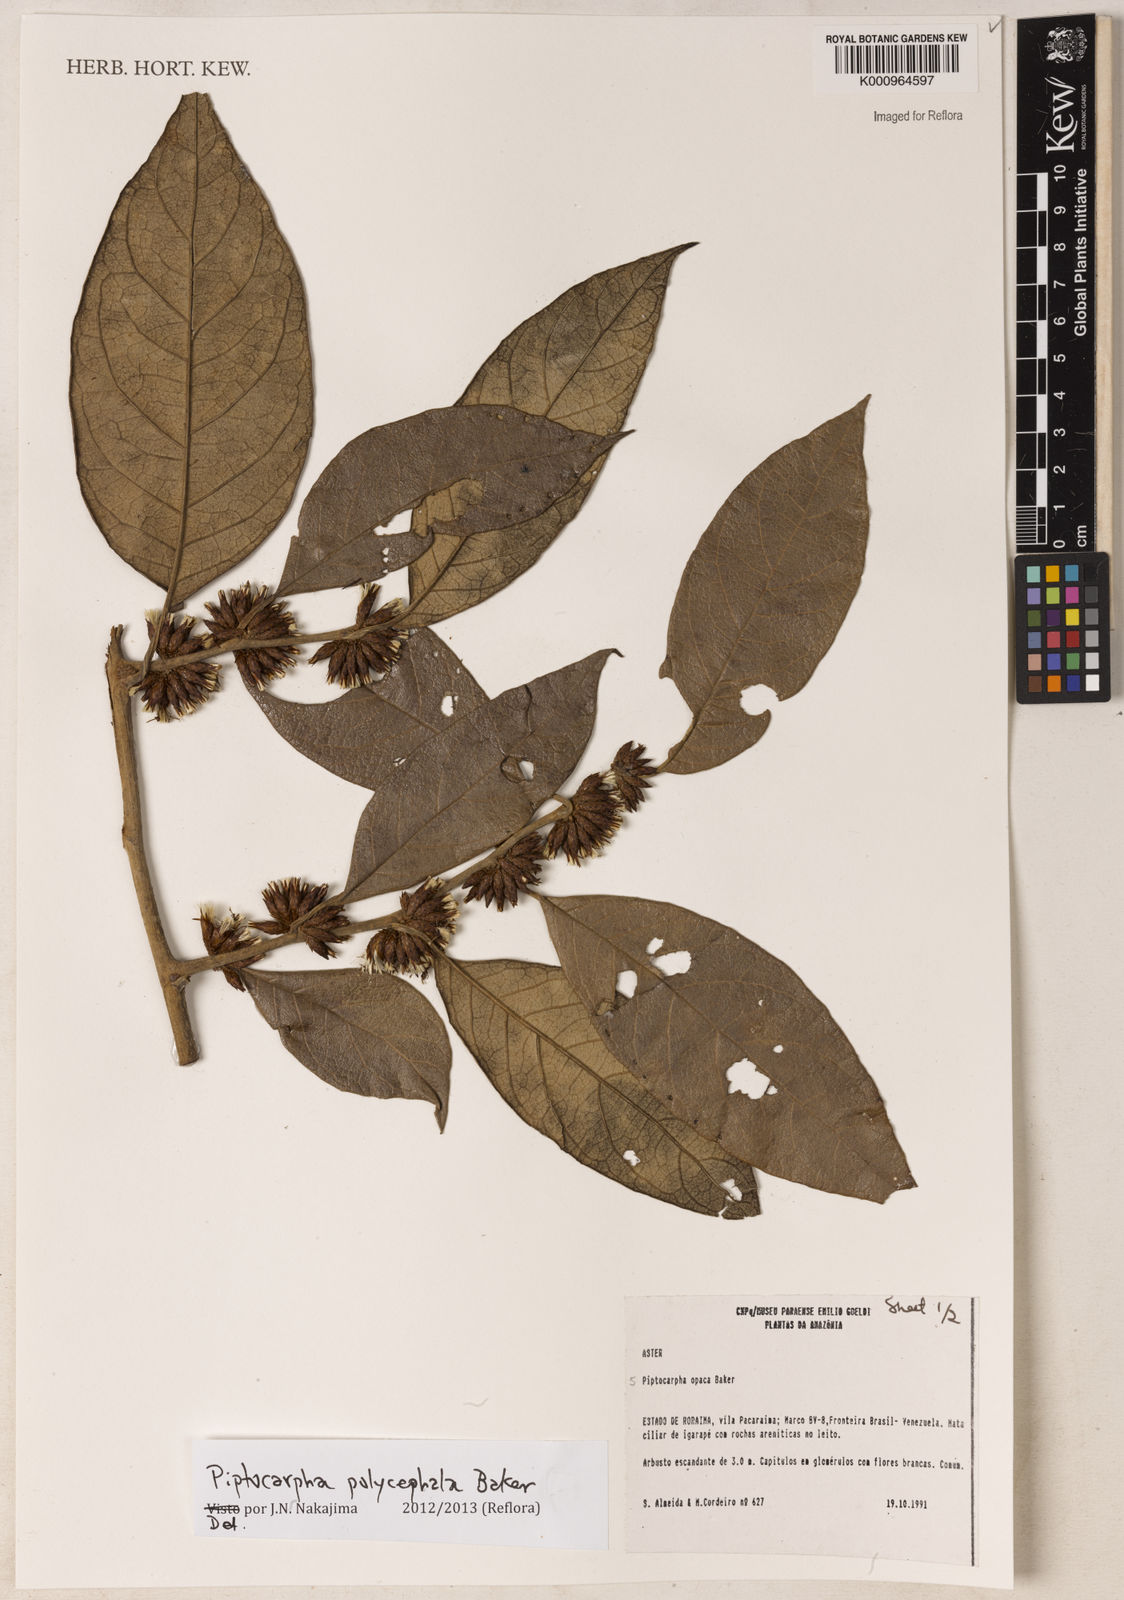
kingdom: Plantae
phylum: Tracheophyta
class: Magnoliopsida
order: Asterales
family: Asteraceae
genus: Piptocarpha
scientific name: Piptocarpha polycephala
